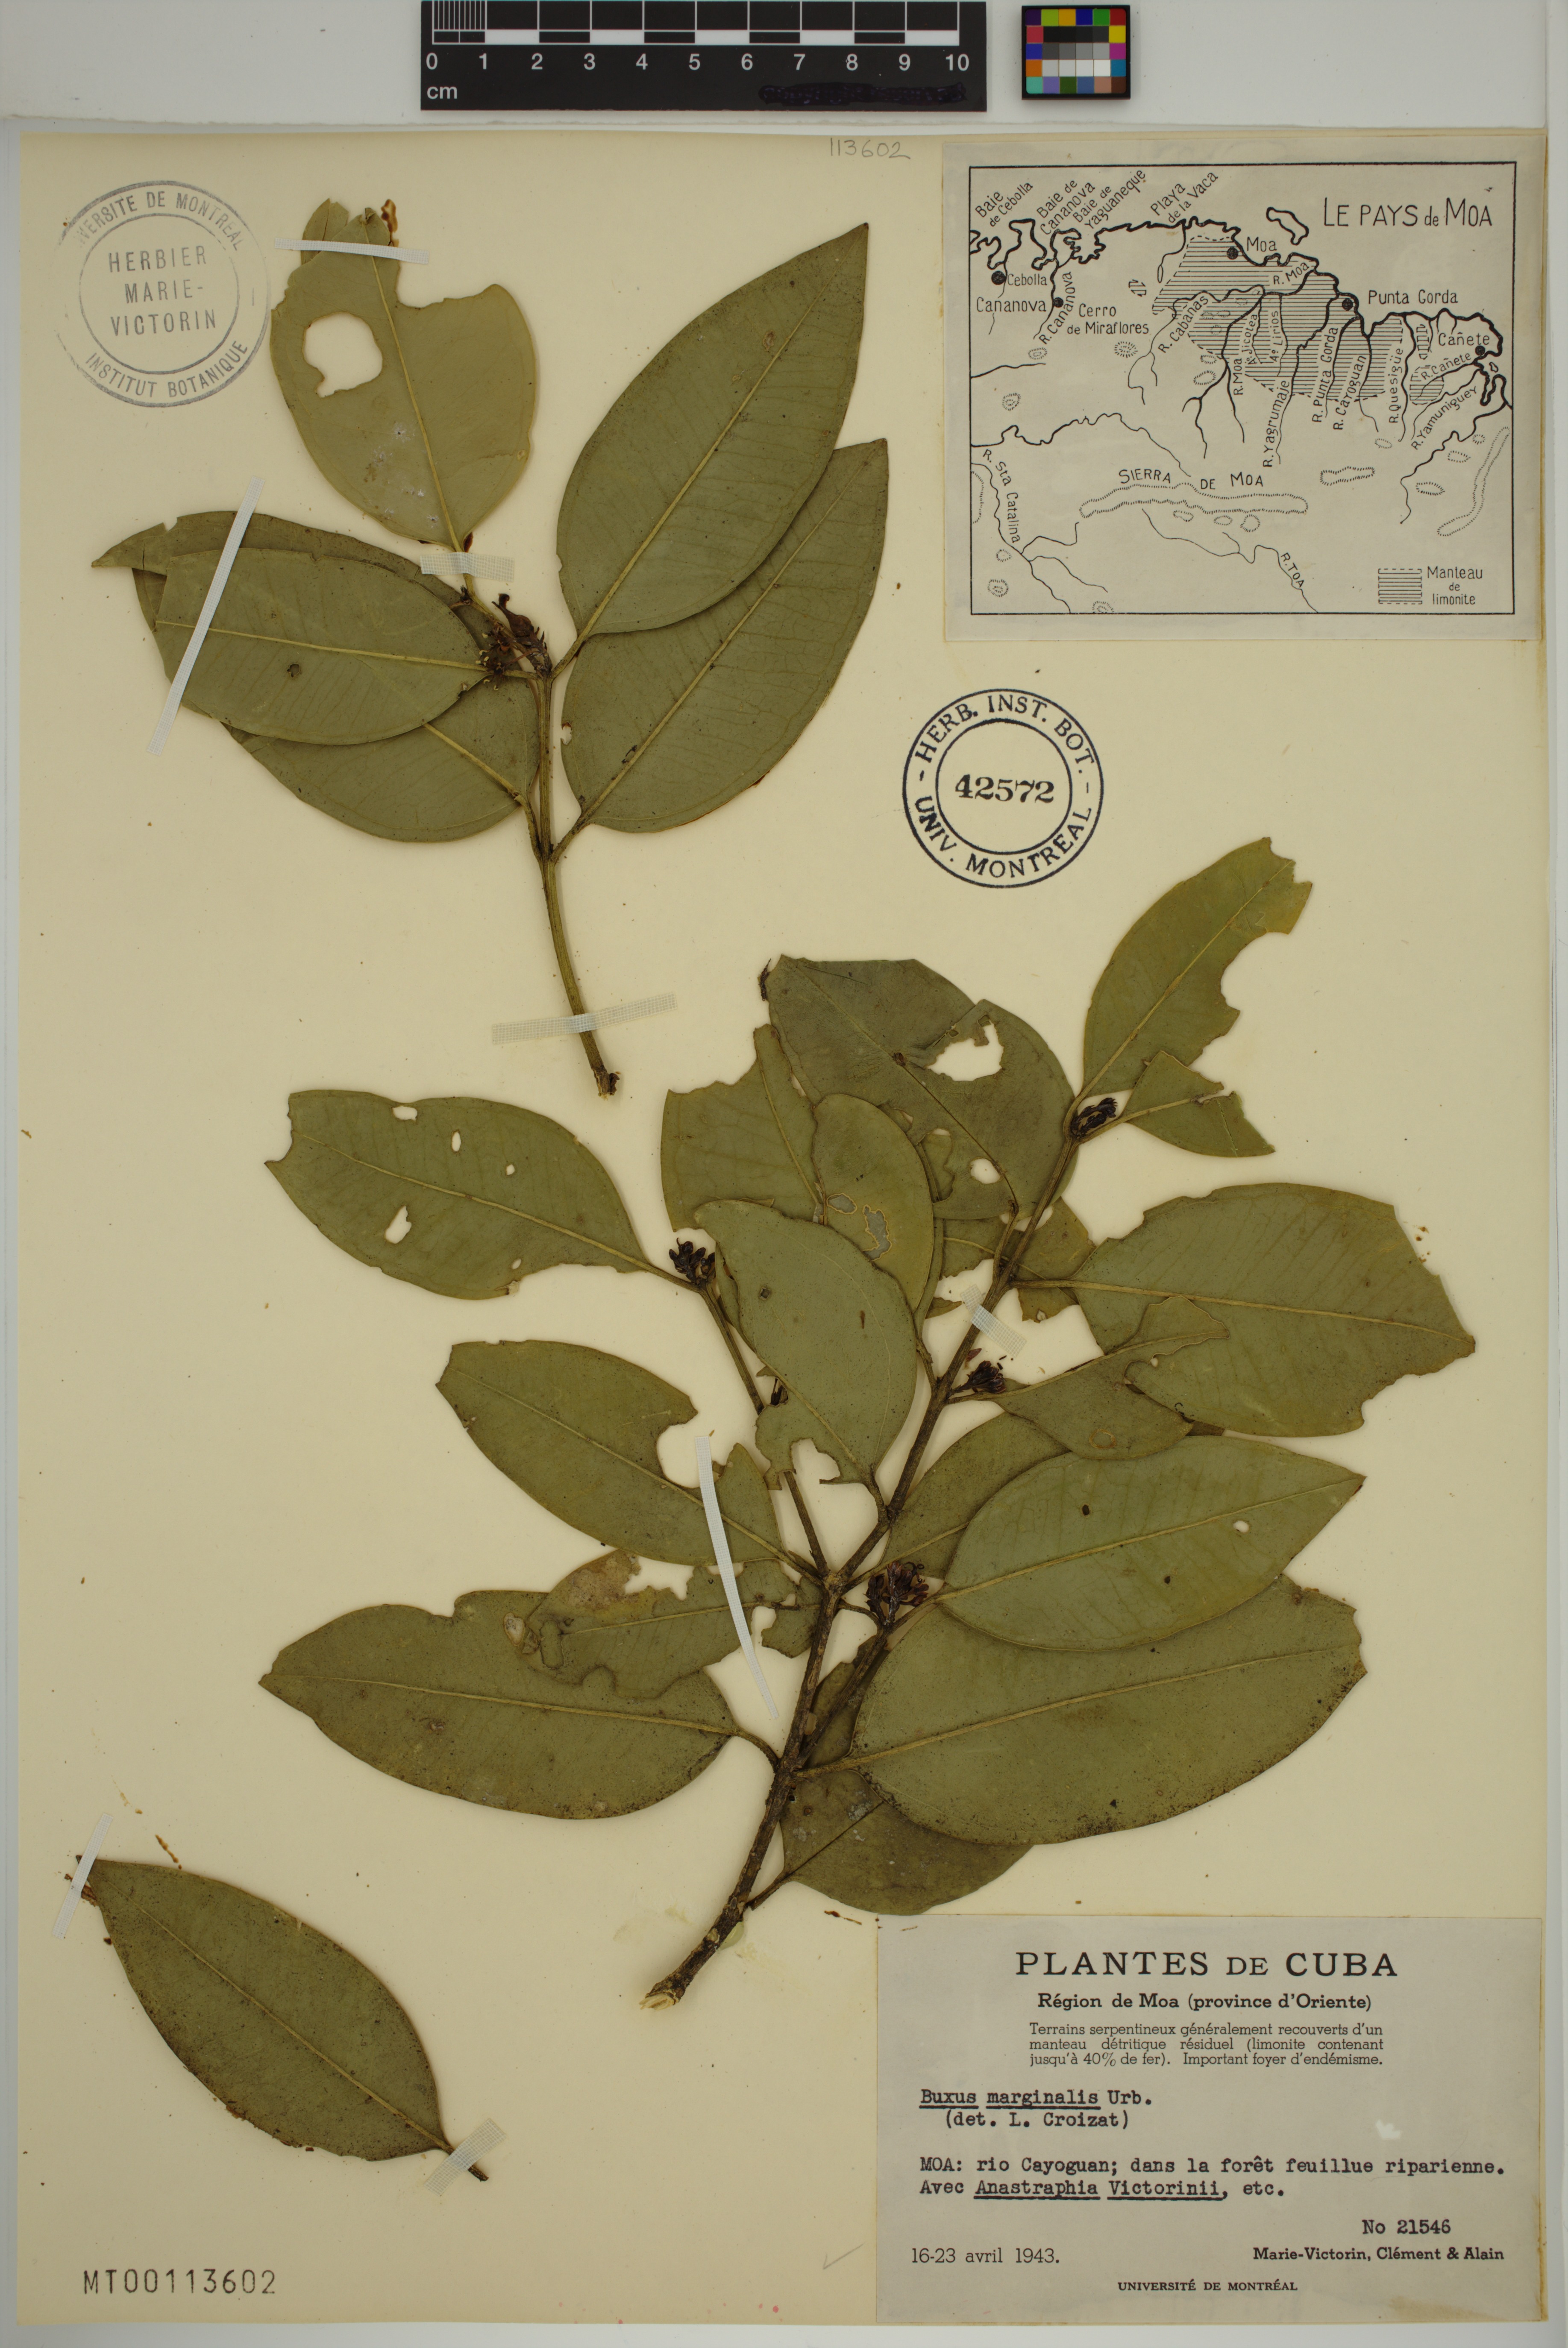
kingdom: Plantae
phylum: Tracheophyta
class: Magnoliopsida
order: Buxales
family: Buxaceae
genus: Buxus
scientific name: Buxus marginalis
